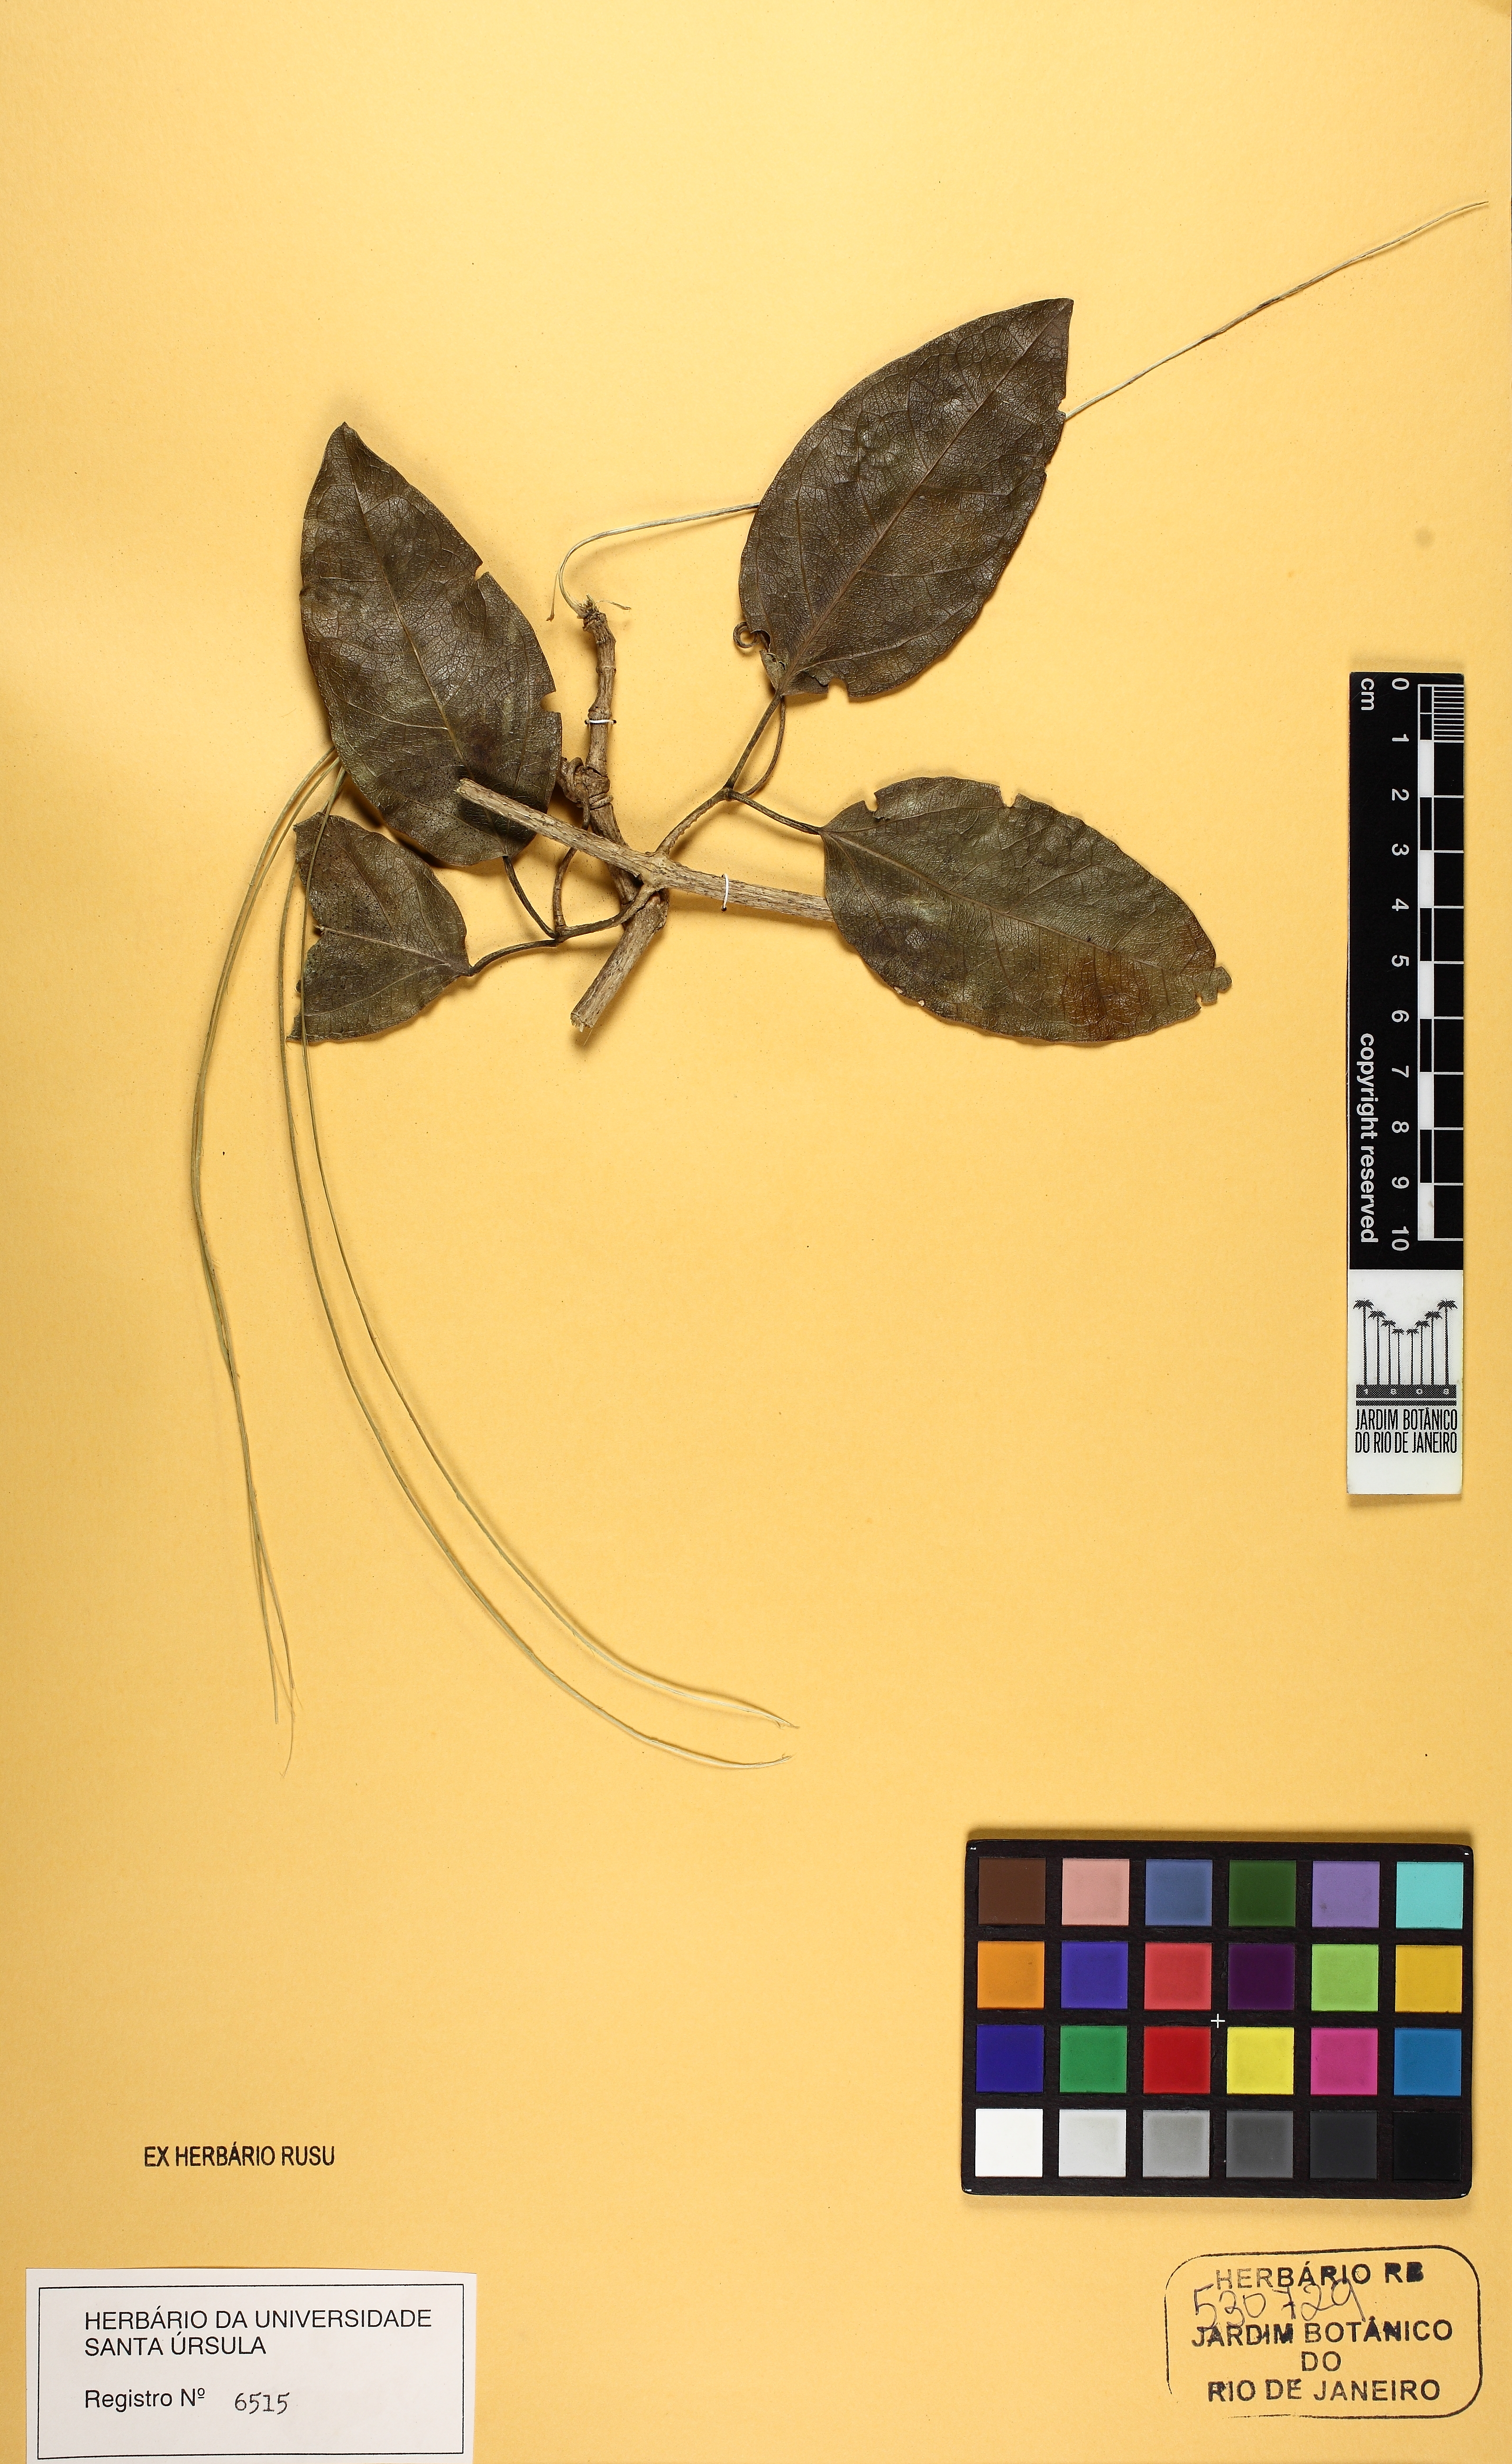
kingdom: Plantae
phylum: Tracheophyta
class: Magnoliopsida
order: Lamiales
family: Bignoniaceae
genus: Fridericia
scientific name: Fridericia conjugata
